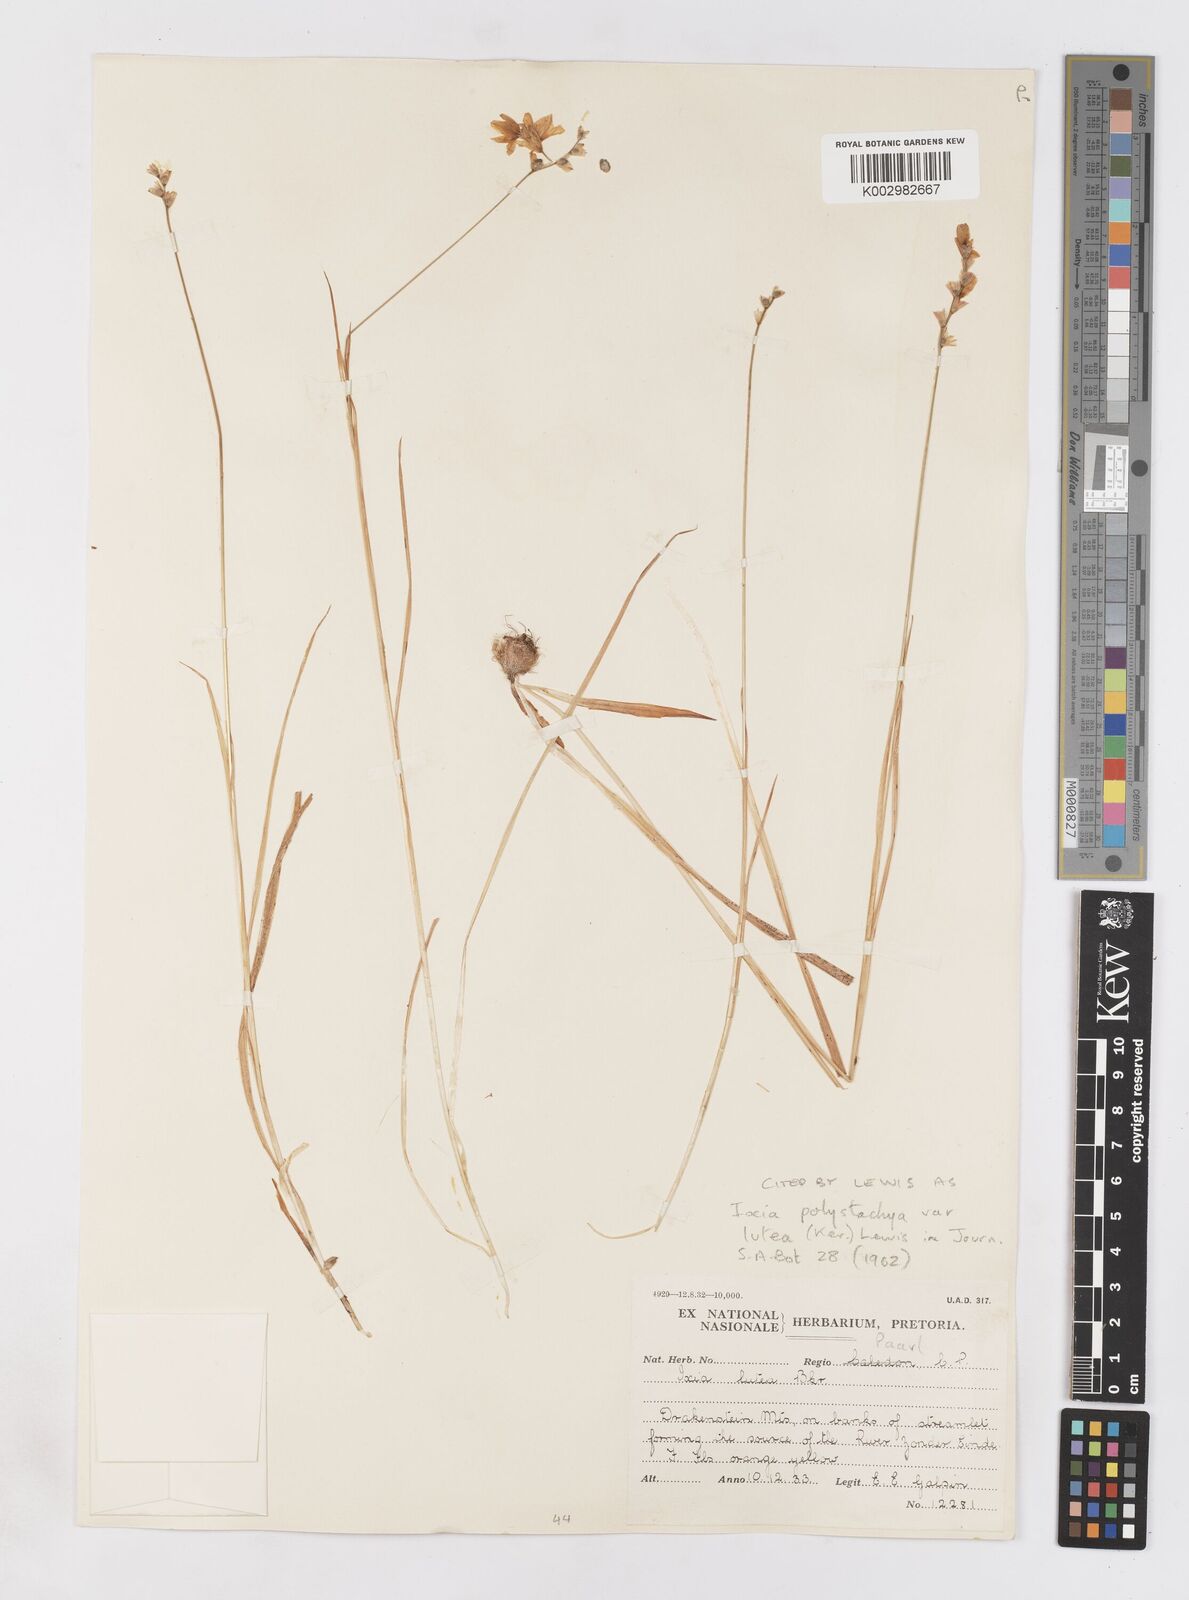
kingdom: Plantae
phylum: Tracheophyta
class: Liliopsida
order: Asparagales
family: Iridaceae
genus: Ixia
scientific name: Ixia polystachya
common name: White-and-yellow-flower cornlily
